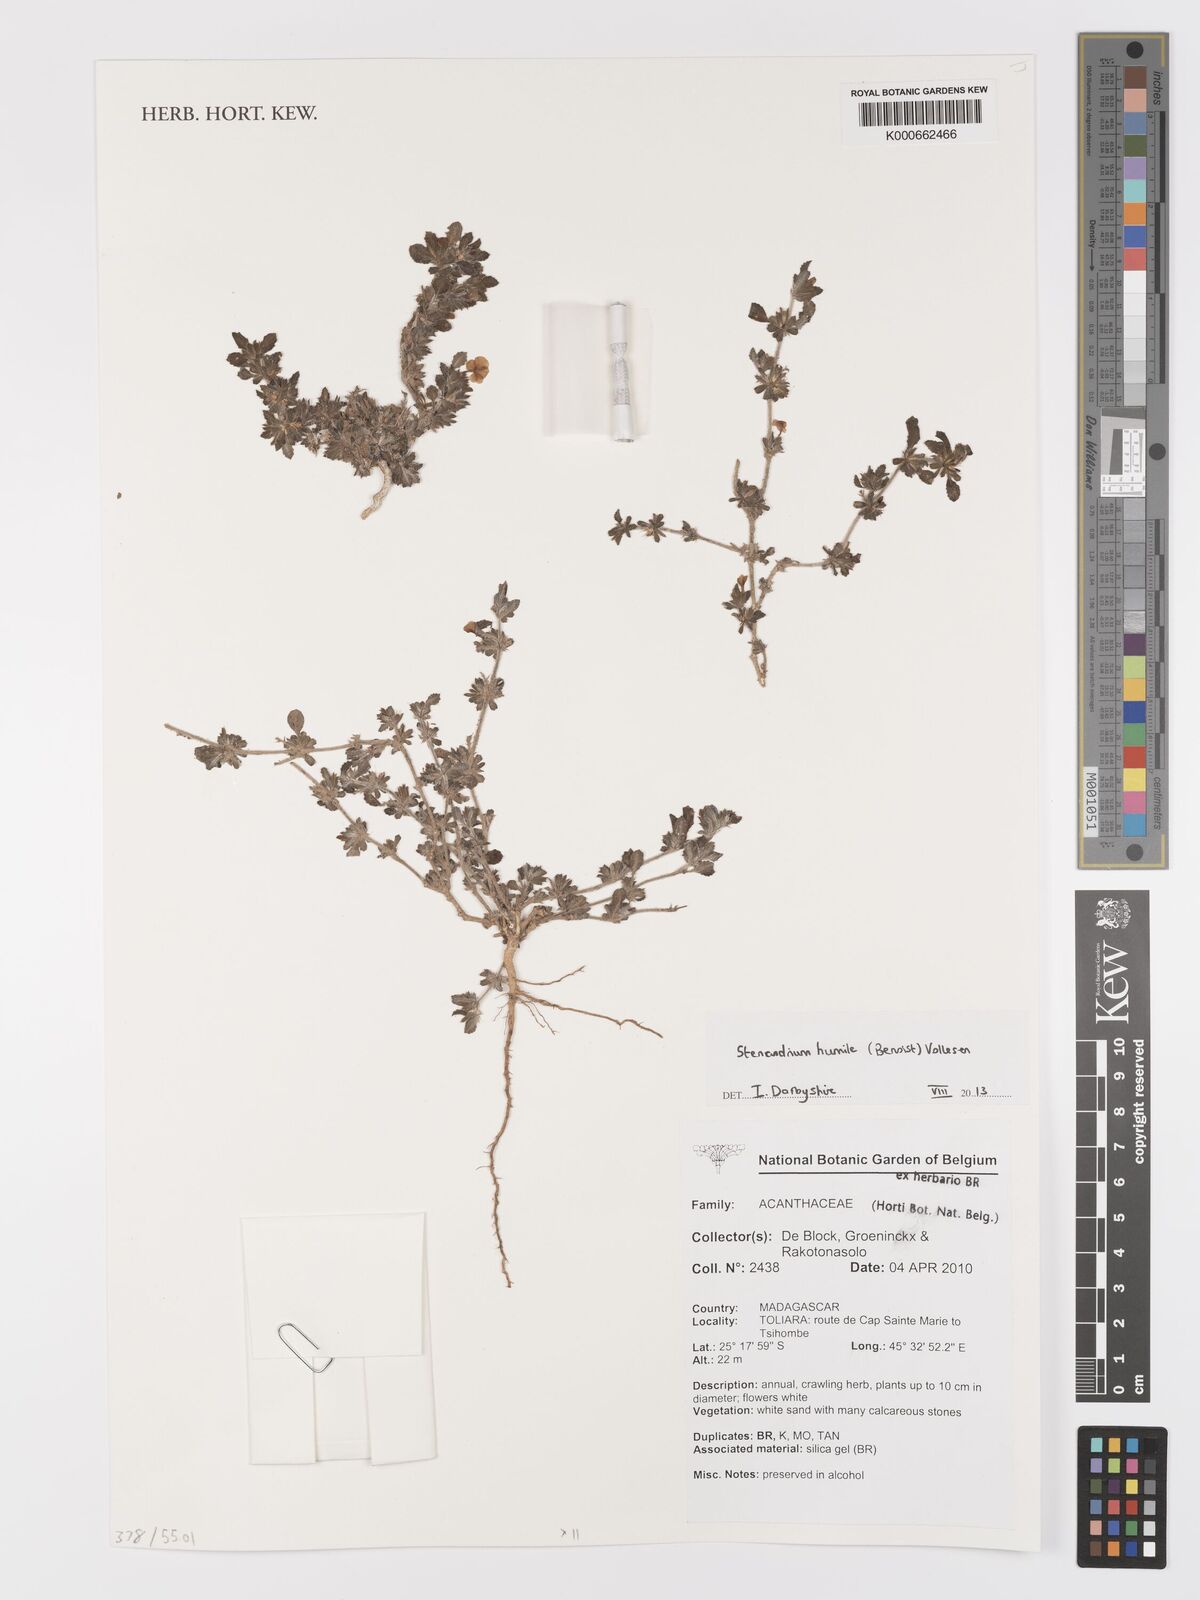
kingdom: Plantae
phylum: Tracheophyta
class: Magnoliopsida
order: Lamiales
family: Acanthaceae
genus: Stenandriopsis
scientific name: Stenandriopsis keraudrenae
